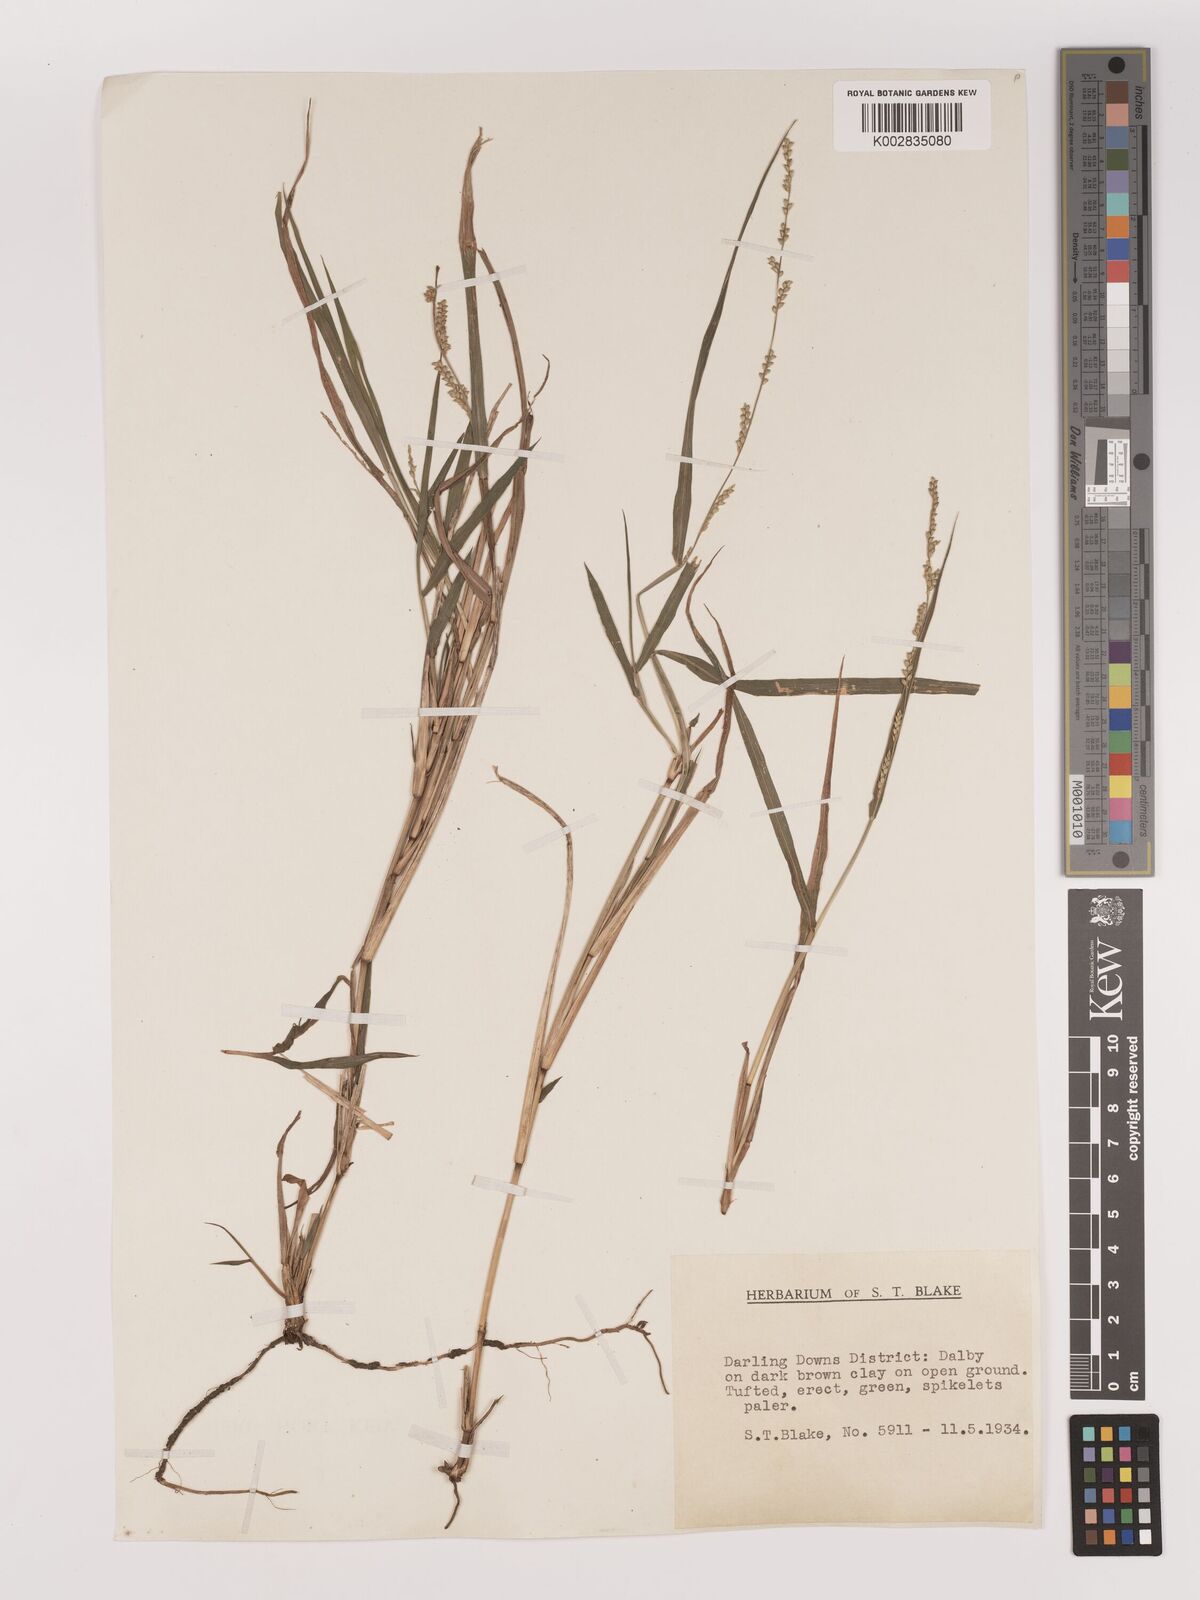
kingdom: Plantae
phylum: Tracheophyta
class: Liliopsida
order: Poales
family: Poaceae
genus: Setaria
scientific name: Setaria
